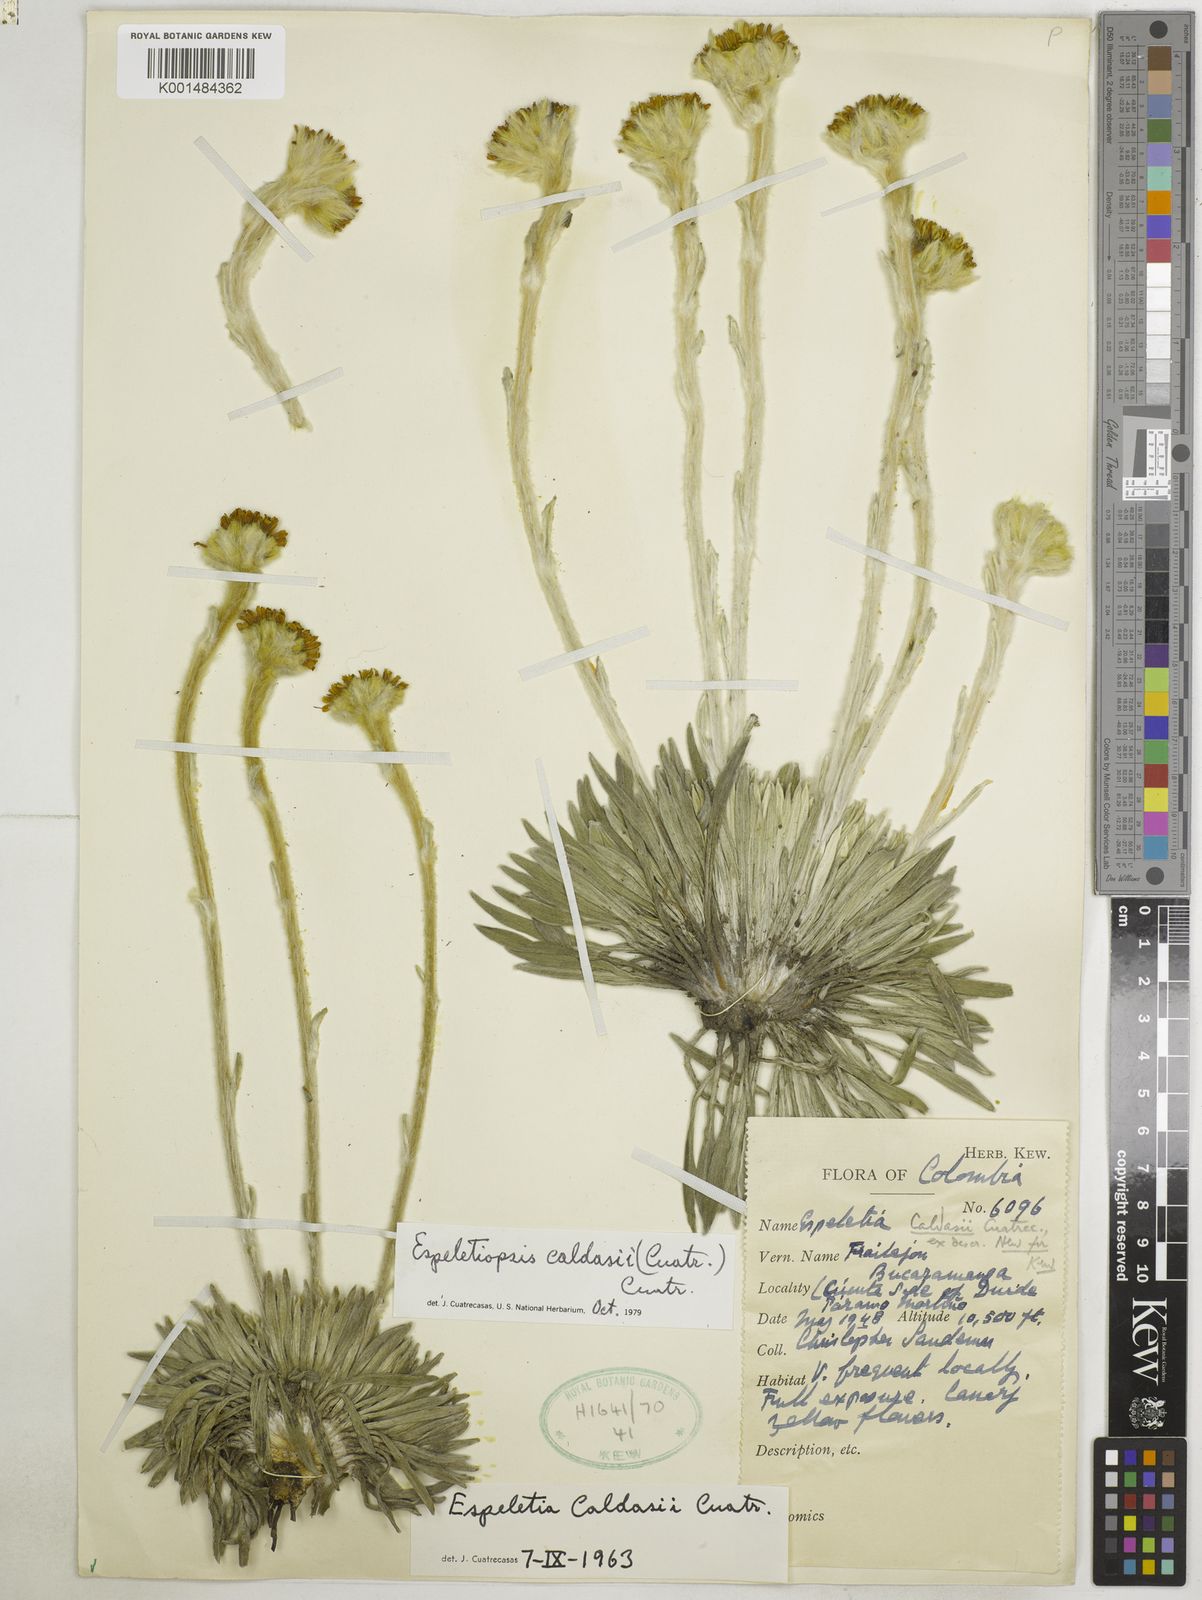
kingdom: Plantae
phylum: Tracheophyta
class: Magnoliopsida
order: Asterales
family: Asteraceae
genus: Espeletia
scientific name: Espeletia caldasii
